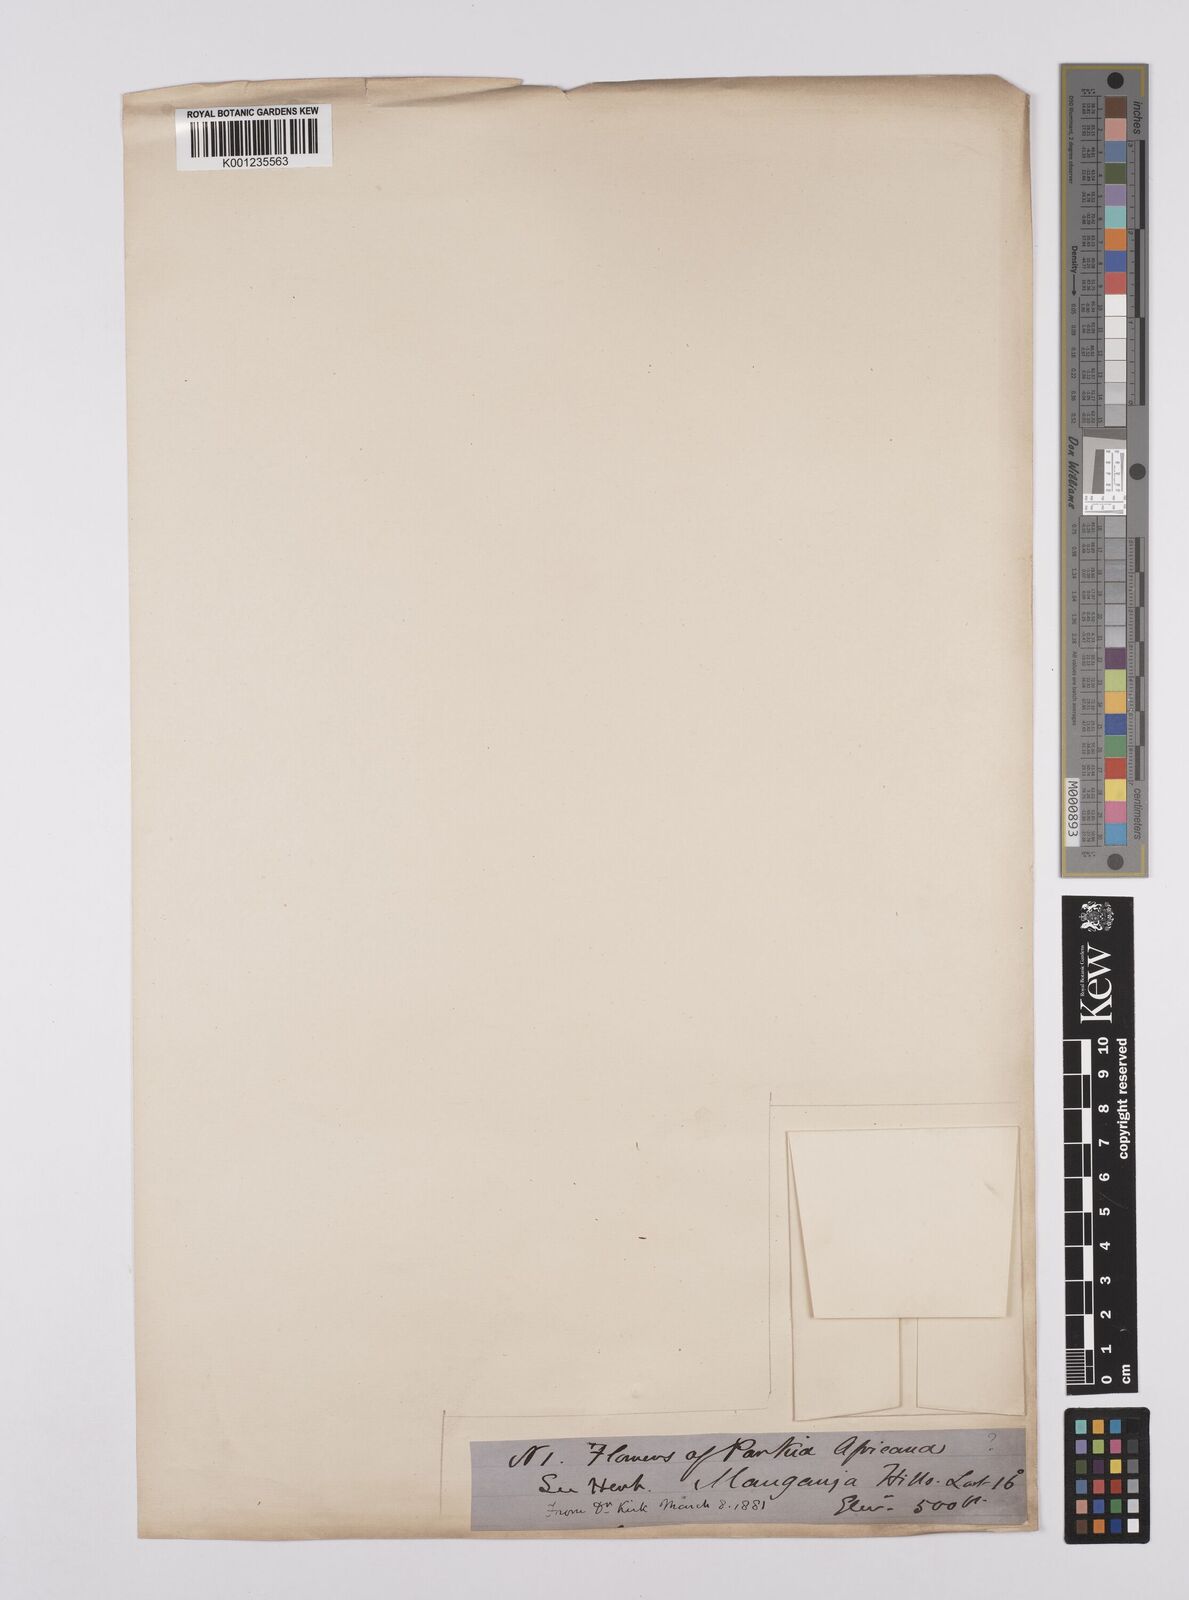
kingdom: Plantae
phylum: Tracheophyta
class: Magnoliopsida
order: Fabales
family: Fabaceae
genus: Parkia
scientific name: Parkia filicoidea
